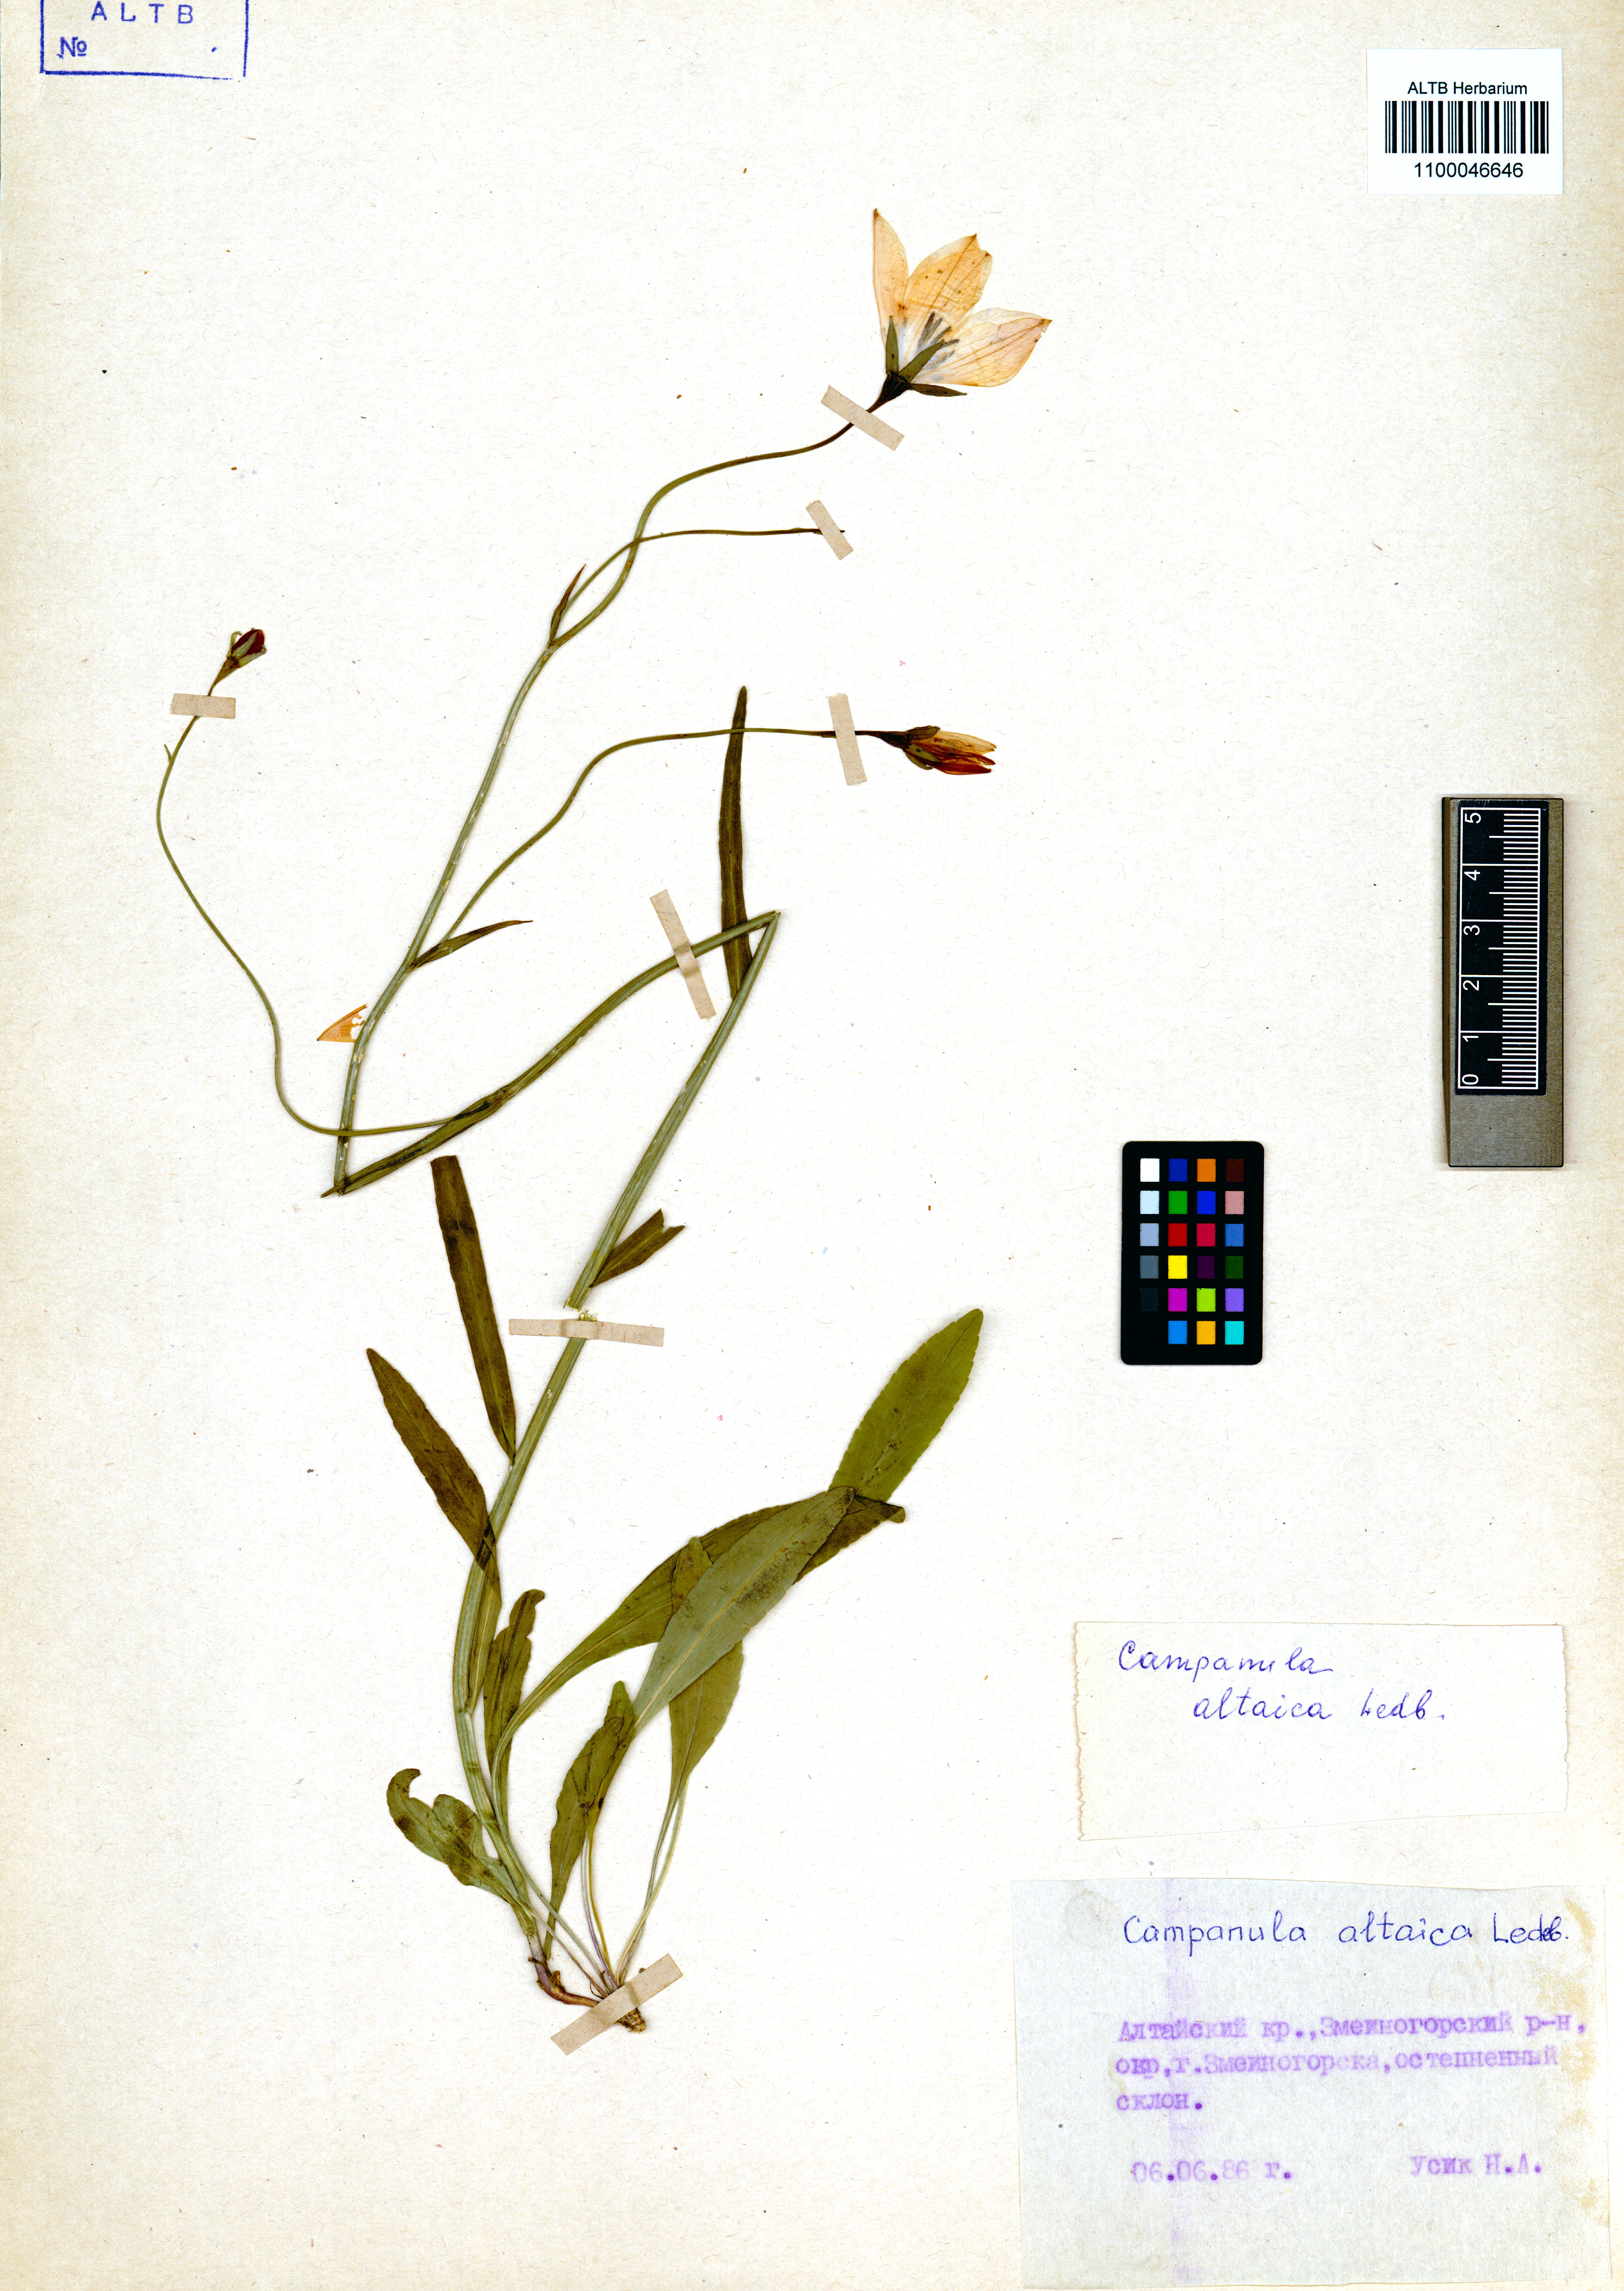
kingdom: Plantae
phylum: Tracheophyta
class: Magnoliopsida
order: Asterales
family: Campanulaceae
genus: Campanula
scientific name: Campanula stevenii
